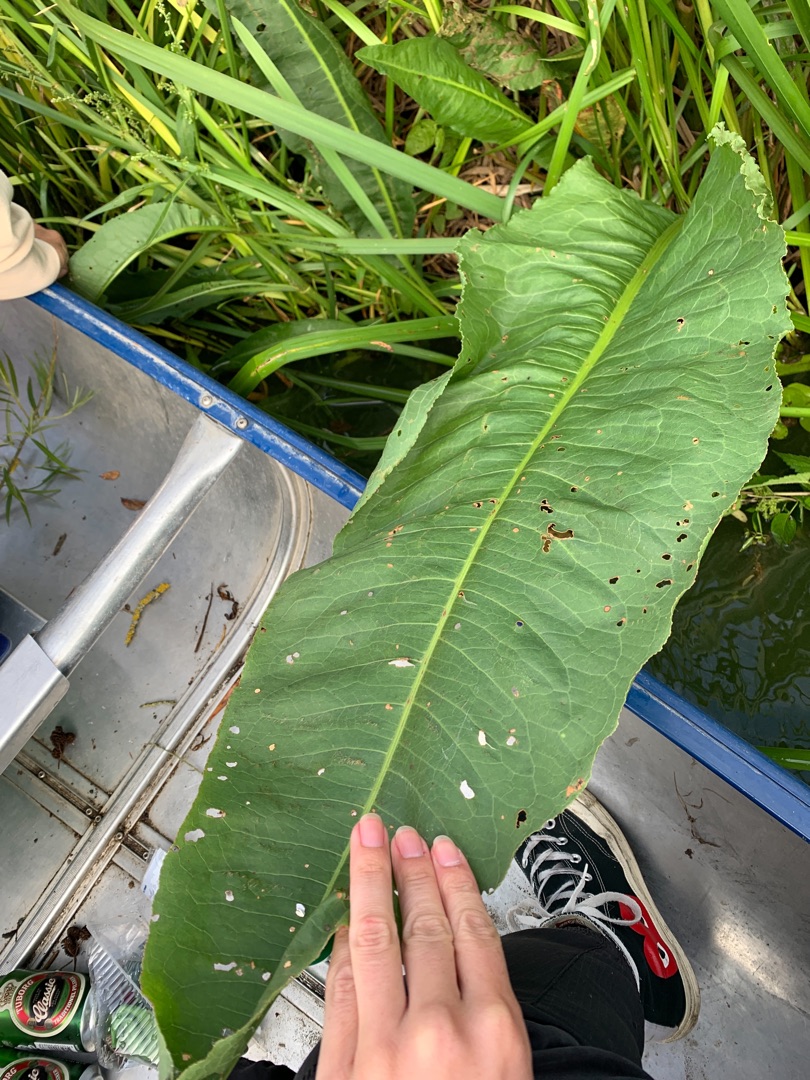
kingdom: Plantae
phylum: Tracheophyta
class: Magnoliopsida
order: Caryophyllales
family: Polygonaceae
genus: Rumex
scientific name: Rumex hydrolapathum
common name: Vand-skræppe
